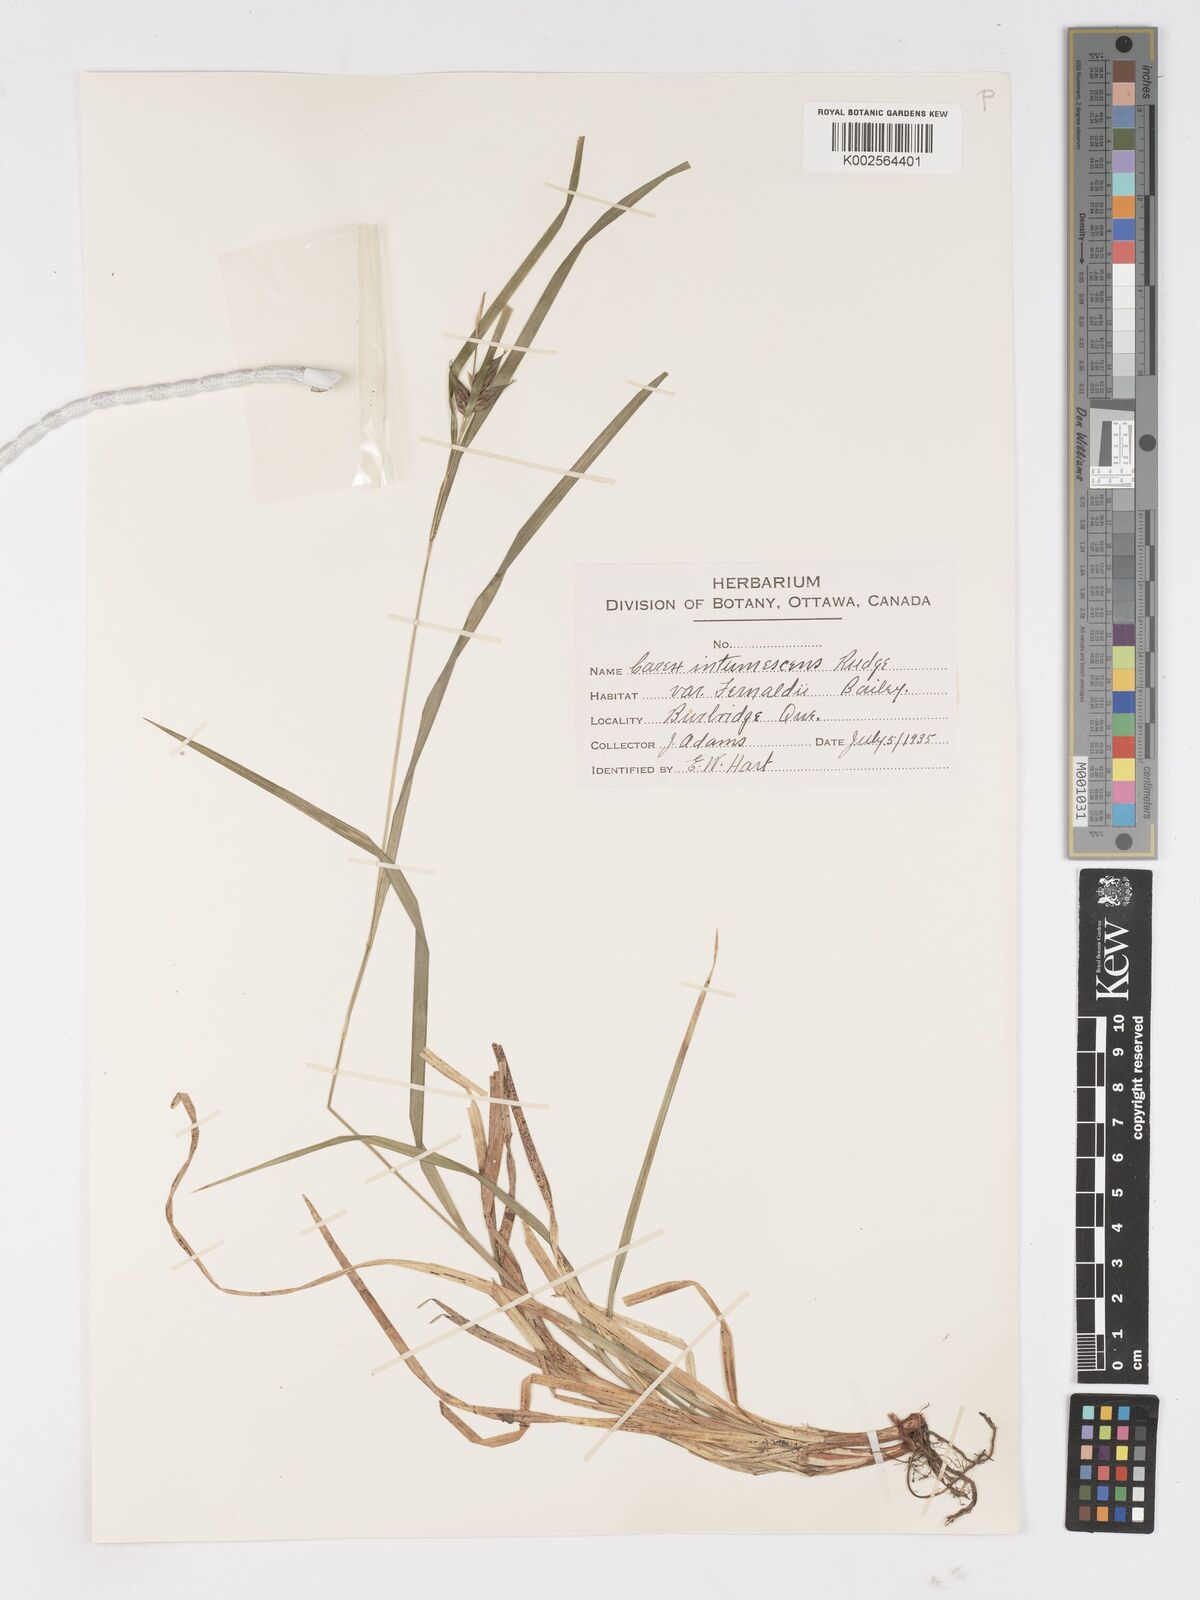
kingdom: Plantae
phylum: Tracheophyta
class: Liliopsida
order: Poales
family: Cyperaceae
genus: Carex
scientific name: Carex intumescens
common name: Greater bladder sedge
